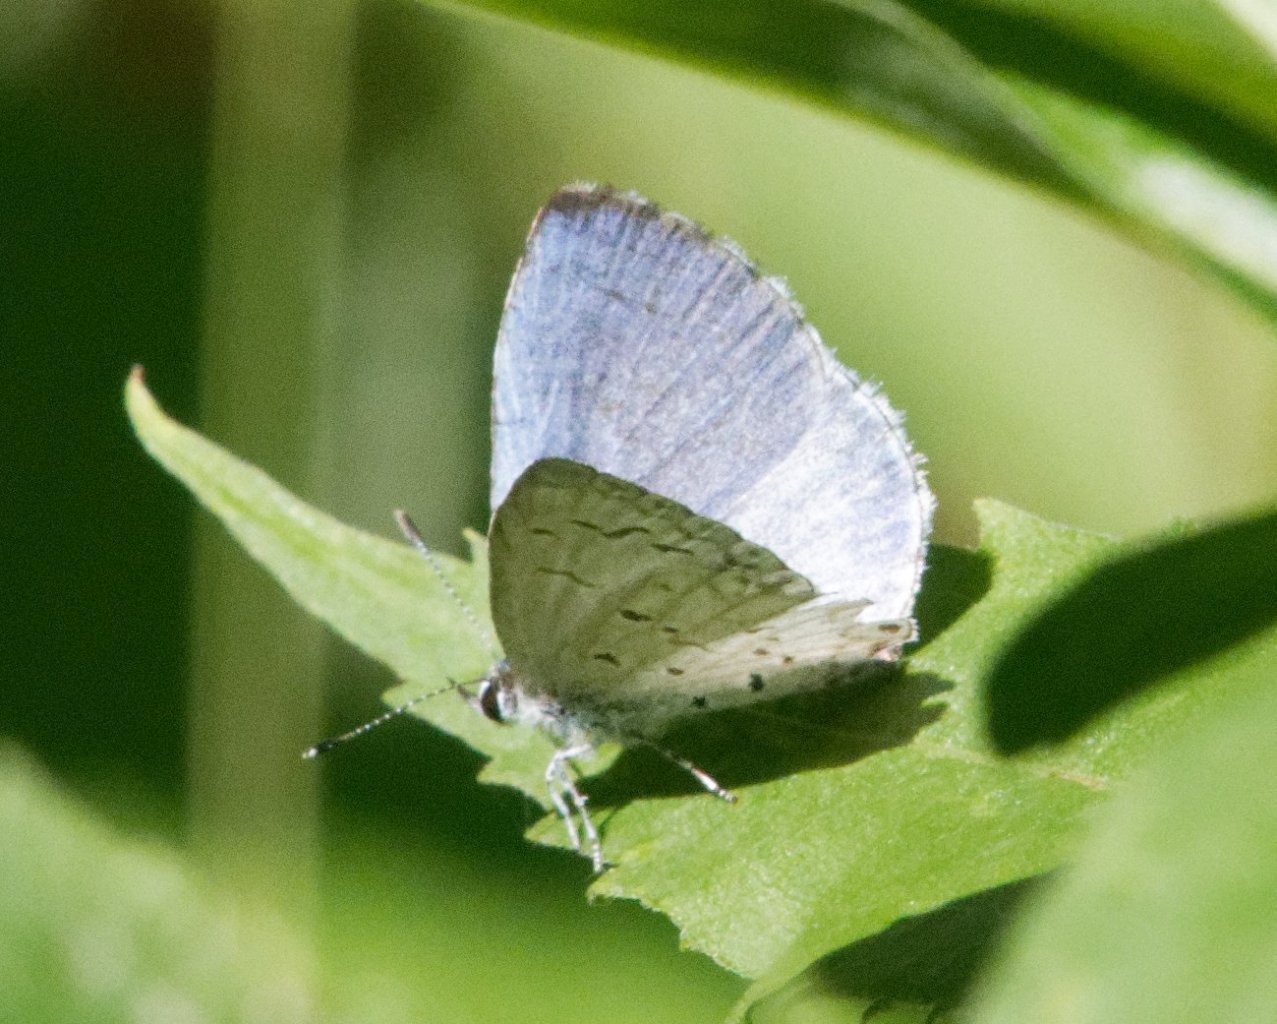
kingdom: Animalia
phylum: Arthropoda
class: Insecta
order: Lepidoptera
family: Lycaenidae
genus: Celastrina
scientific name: Celastrina
